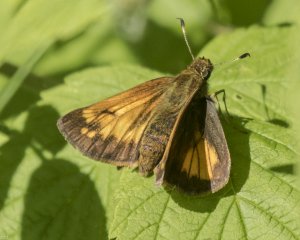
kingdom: Animalia
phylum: Arthropoda
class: Insecta
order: Lepidoptera
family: Hesperiidae
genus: Lon
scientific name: Lon hobomok
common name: Hobomok Skipper
